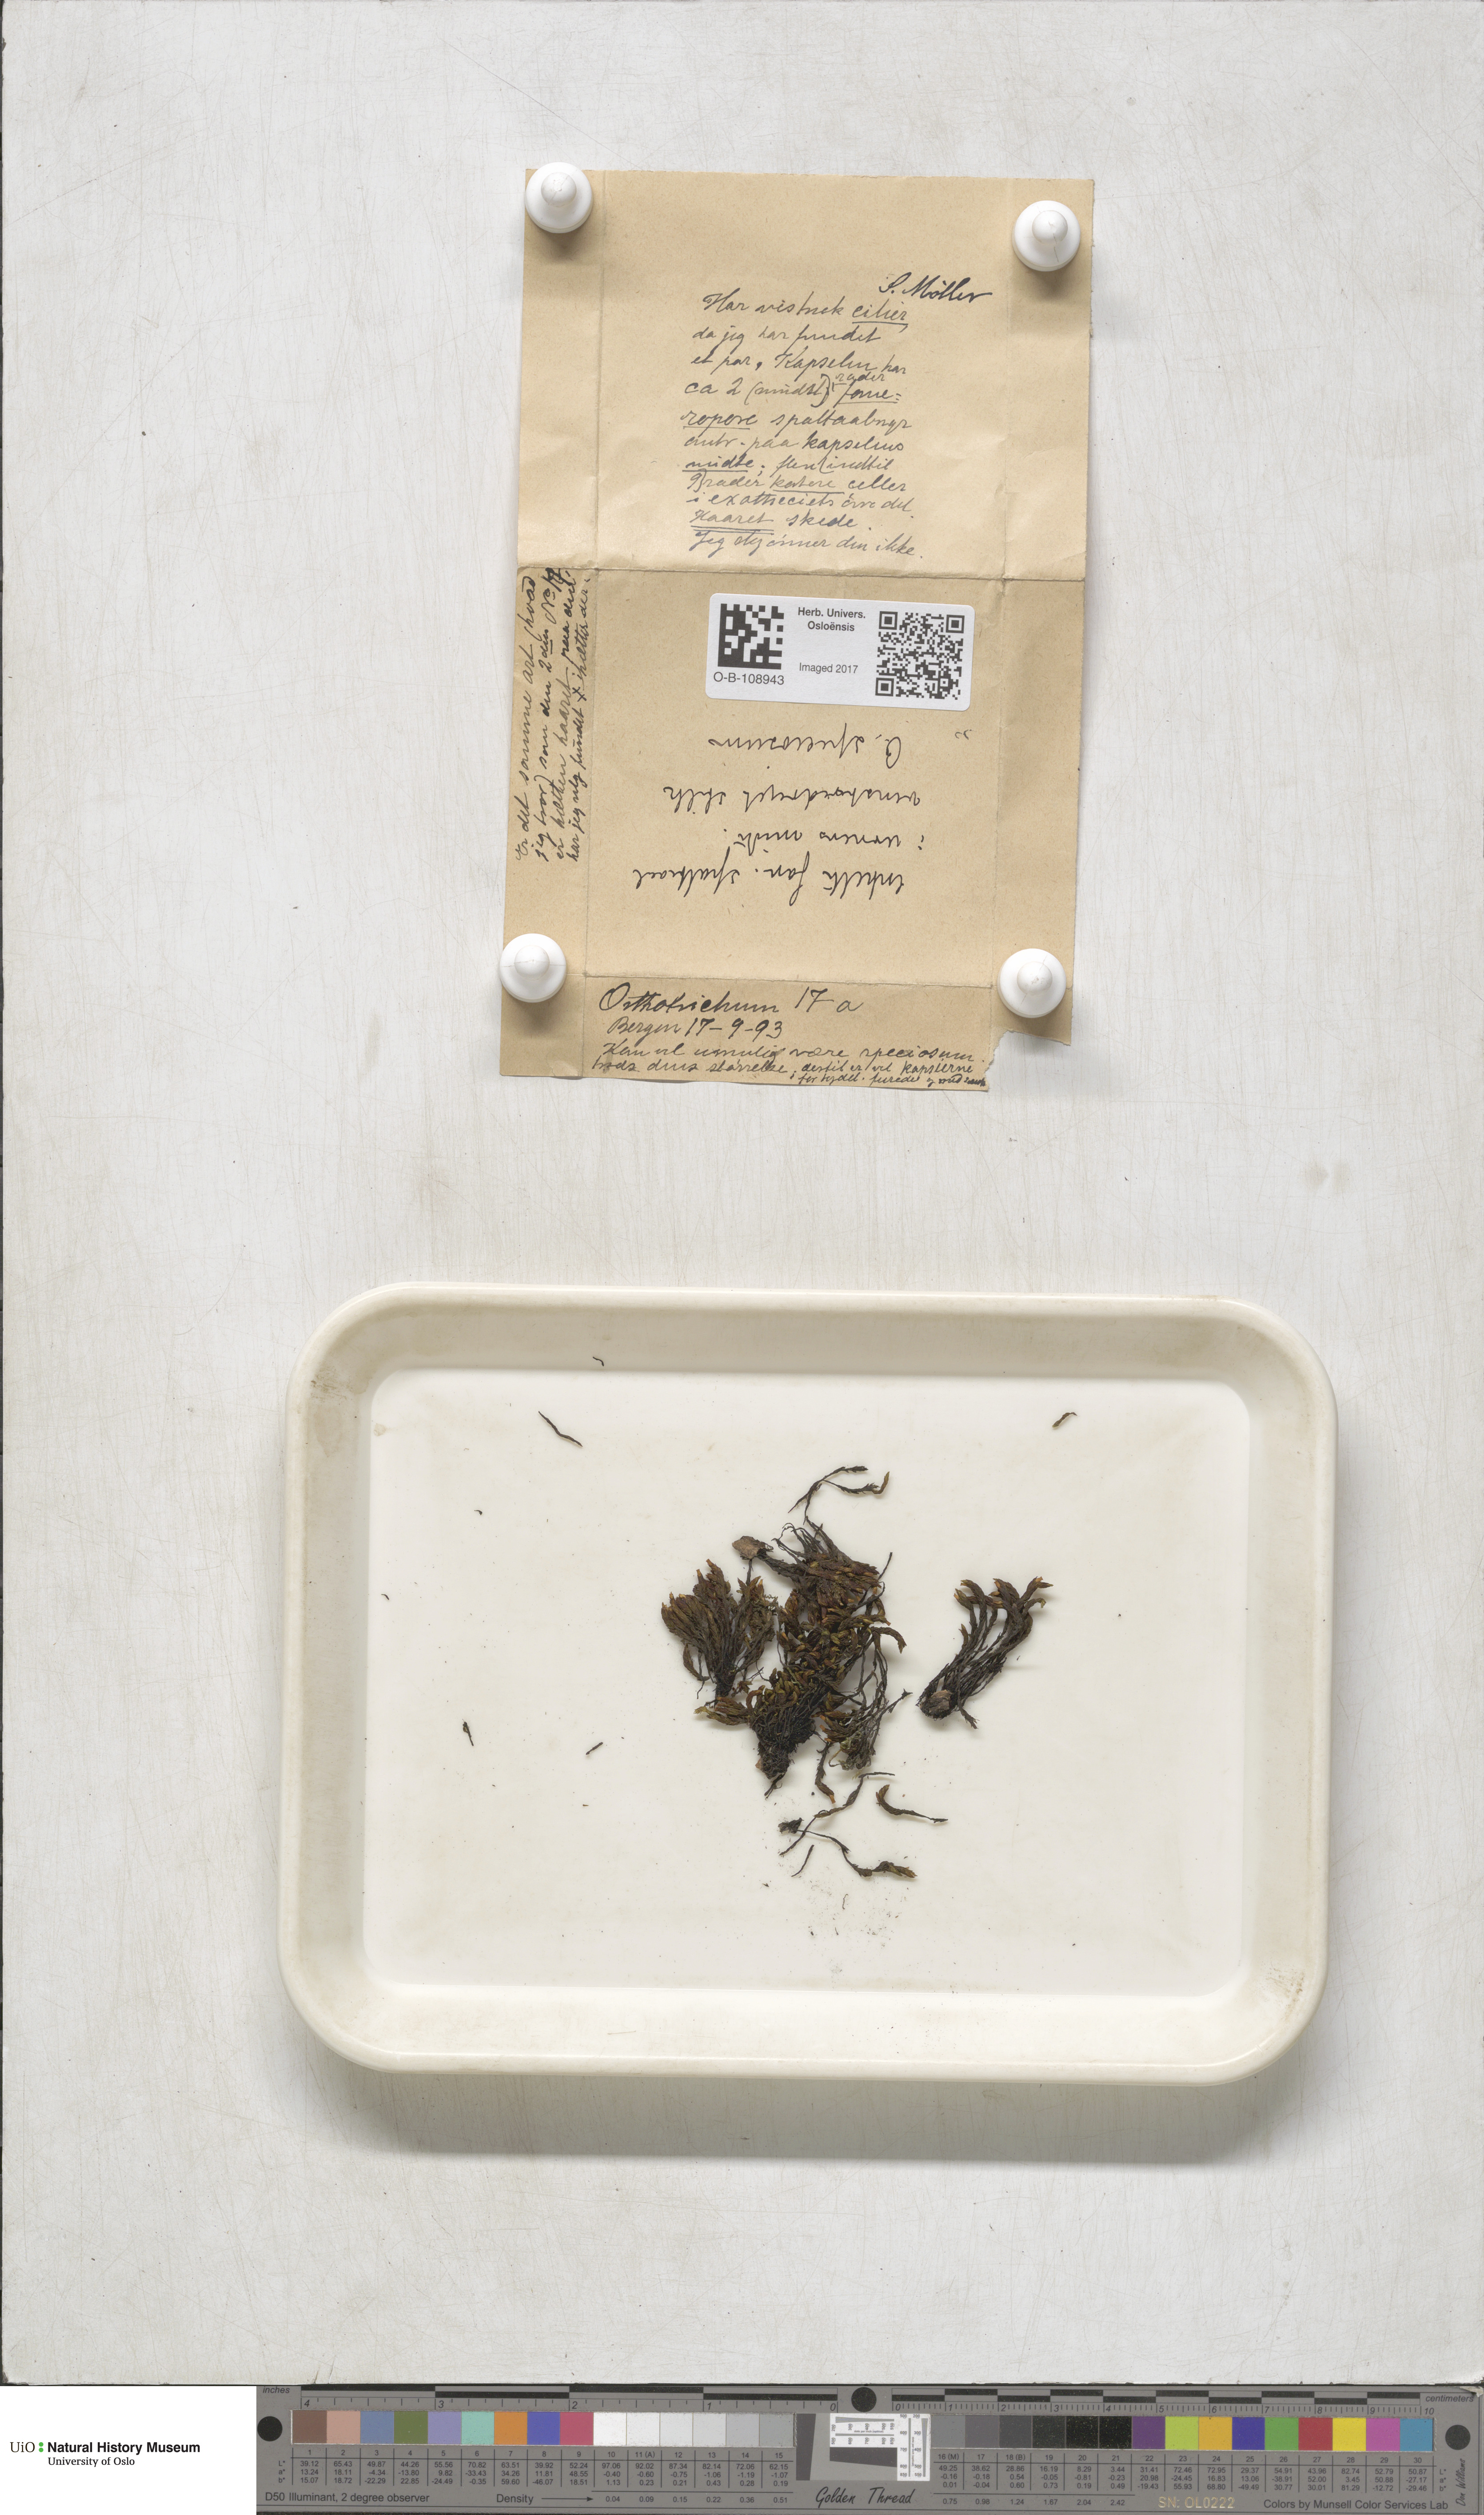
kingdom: Plantae
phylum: Bryophyta
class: Bryopsida
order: Orthotrichales
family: Orthotrichaceae
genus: Lewinskya
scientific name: Lewinskya speciosa
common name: Showy bristle moss
